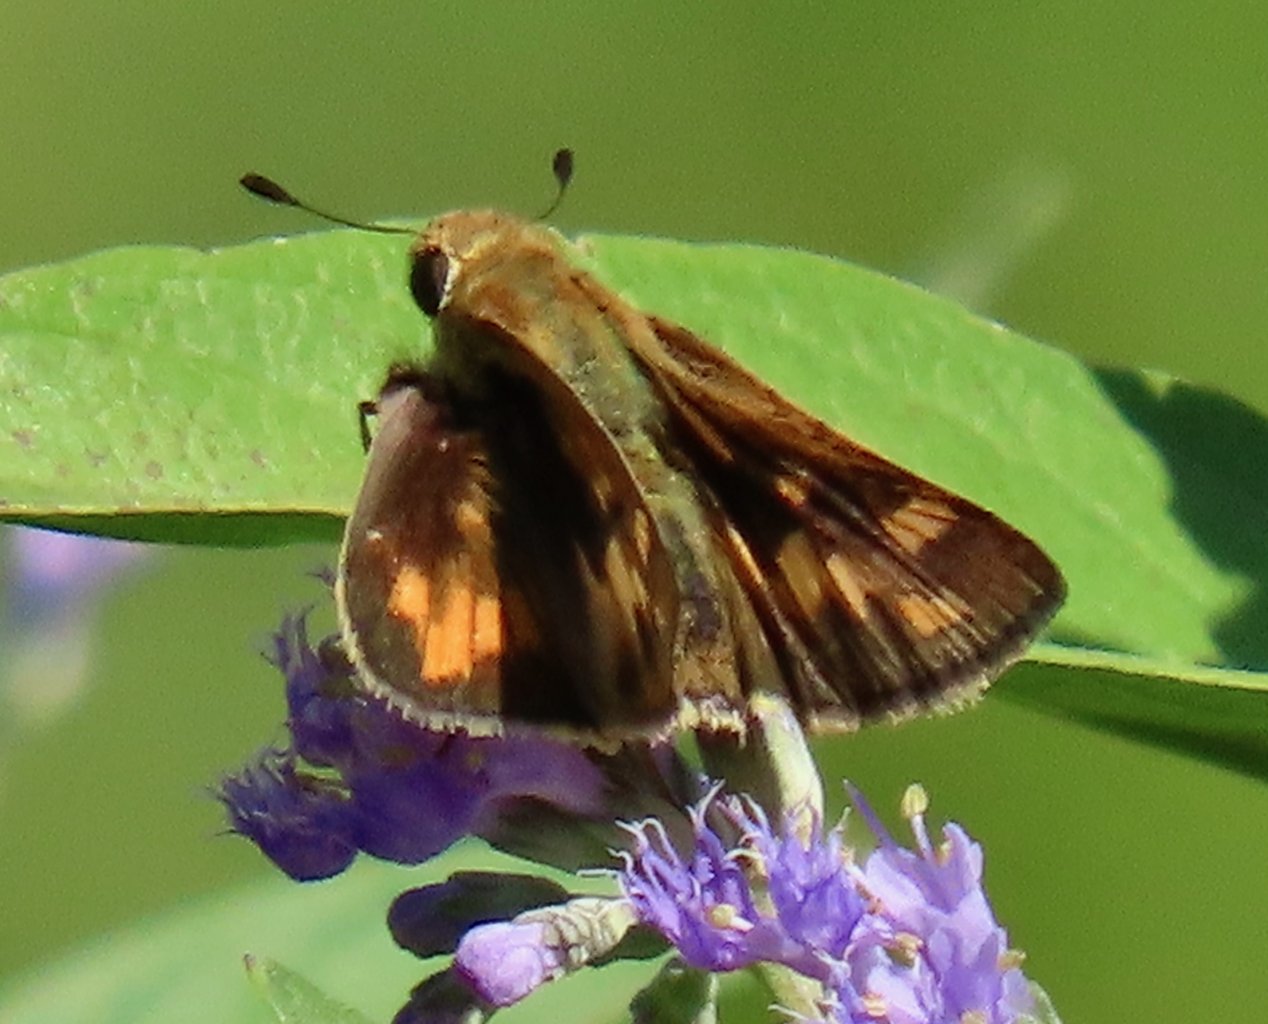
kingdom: Animalia
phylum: Arthropoda
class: Insecta
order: Lepidoptera
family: Hesperiidae
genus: Polites
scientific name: Polites coras
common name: Peck's Skipper
